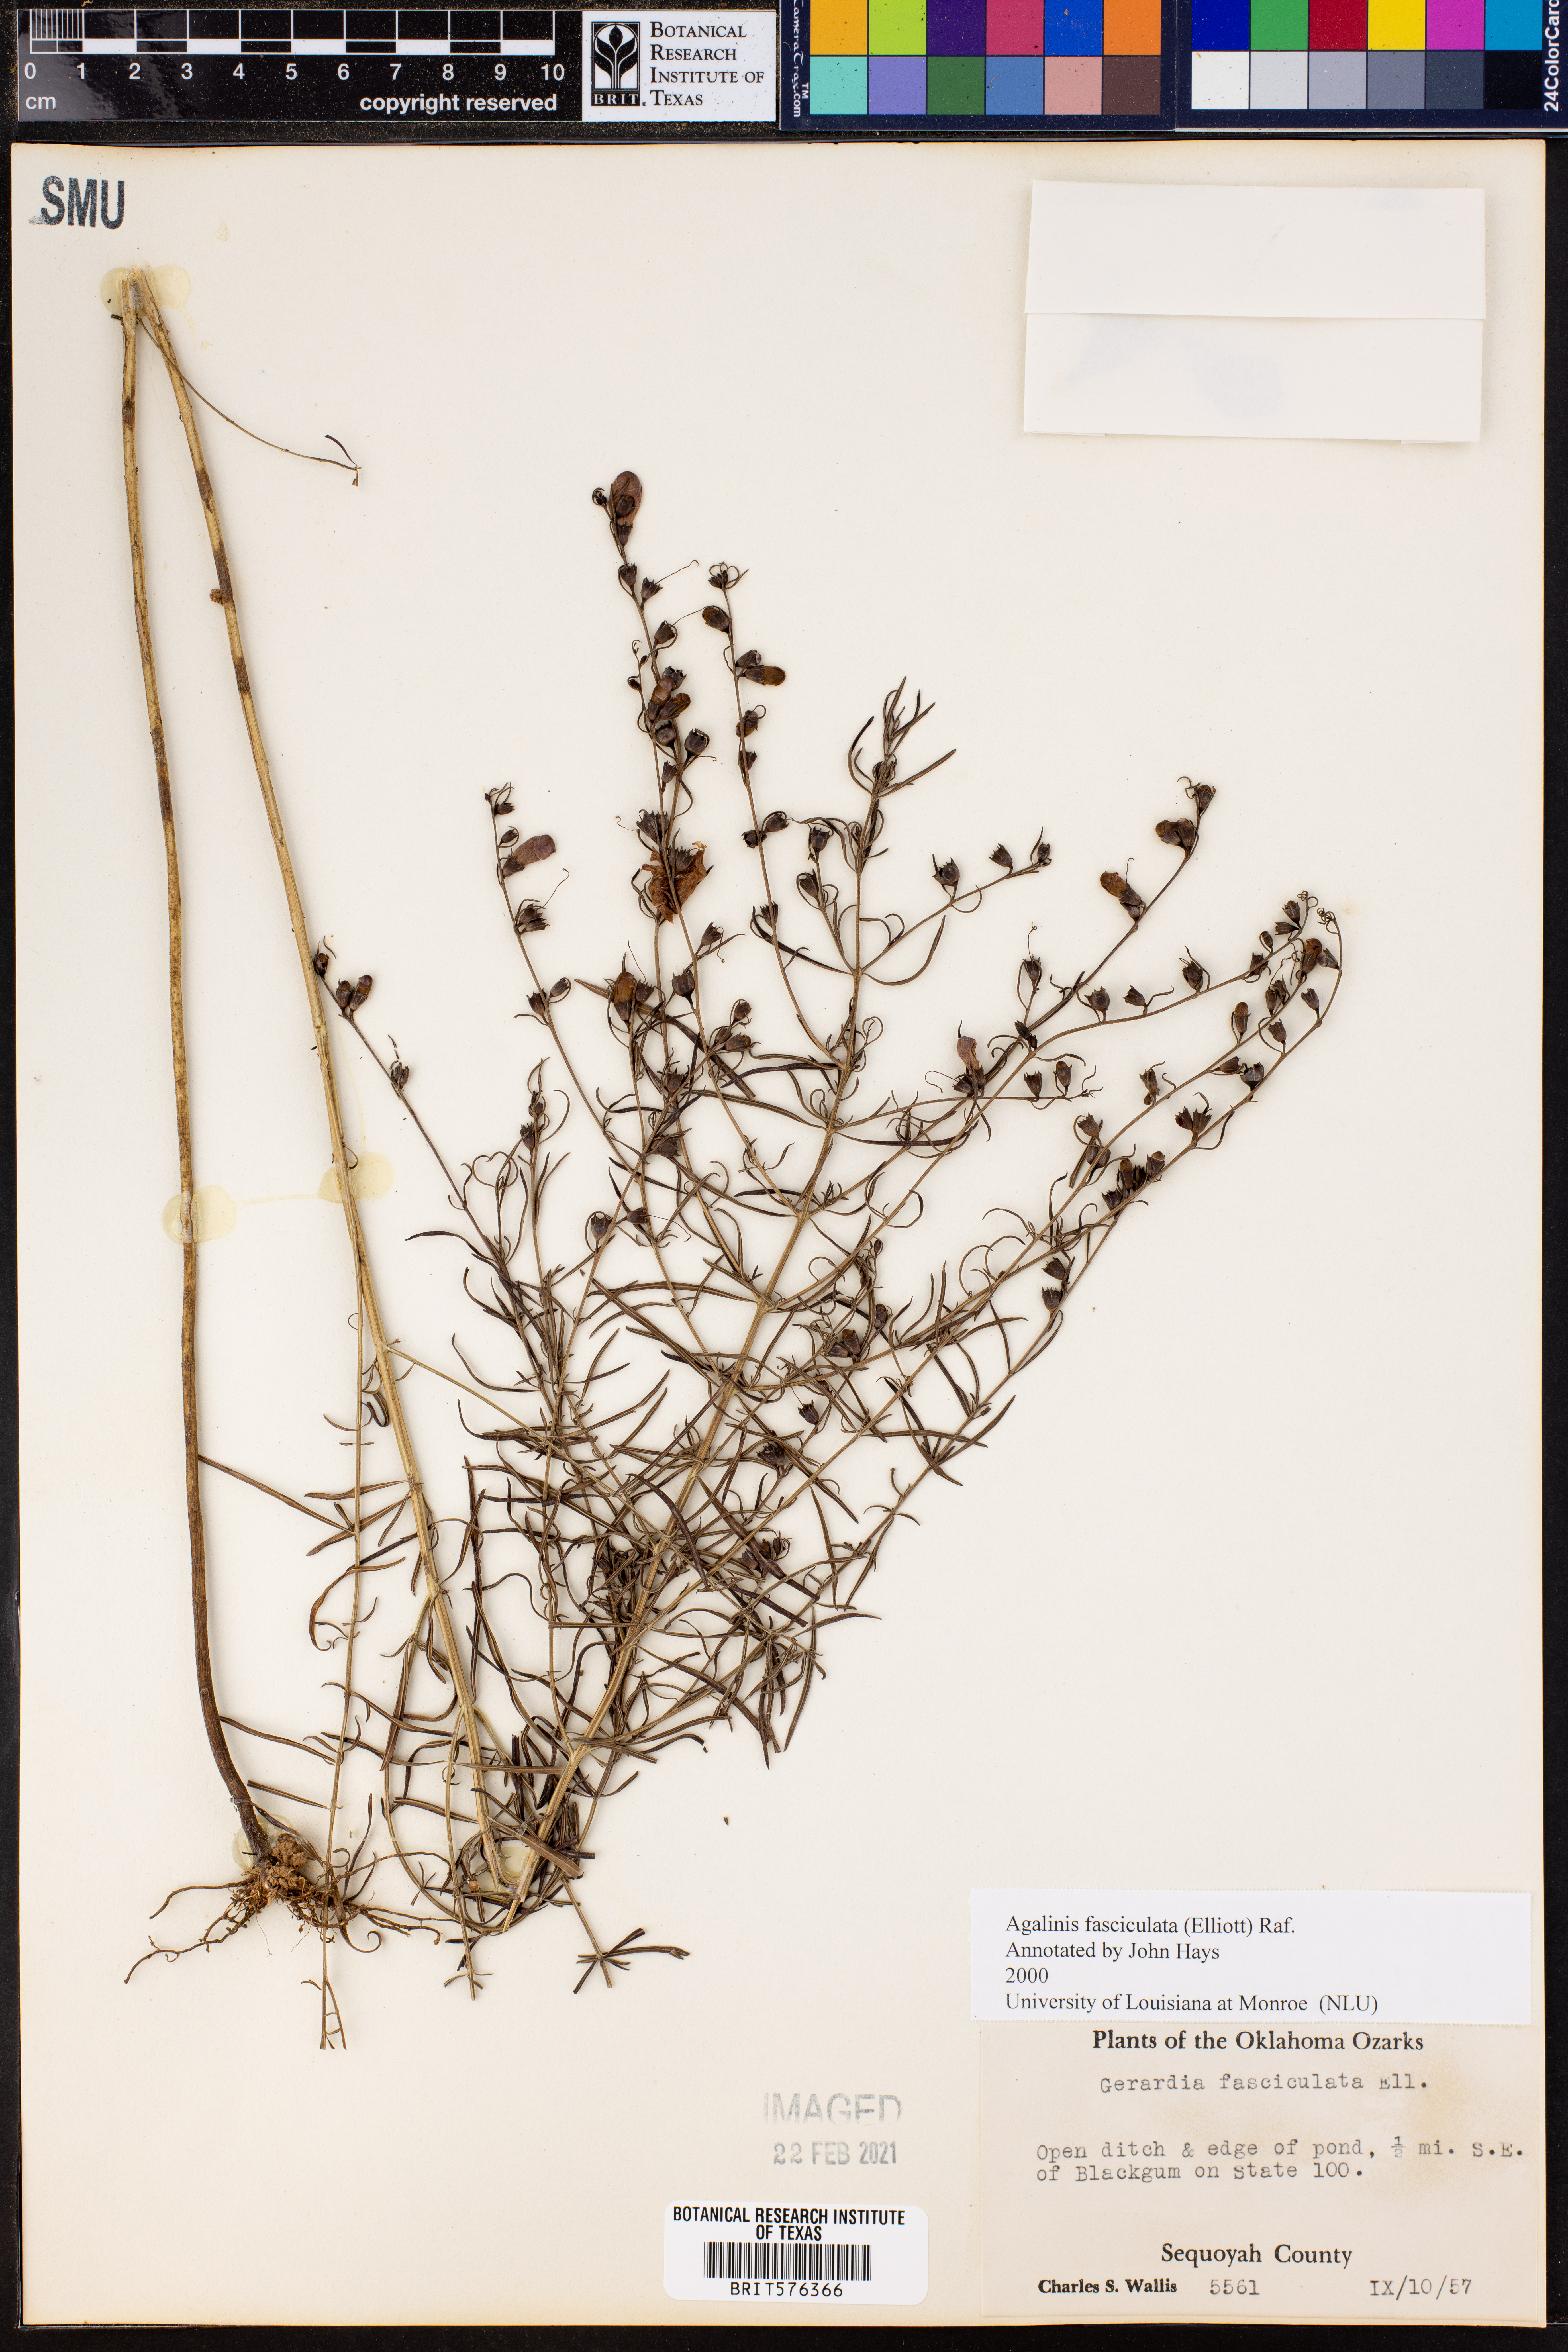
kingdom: Plantae
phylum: Tracheophyta
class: Magnoliopsida
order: Lamiales
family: Orobanchaceae
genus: Agalinis
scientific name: Agalinis fasciculata
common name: Beach false foxglove
